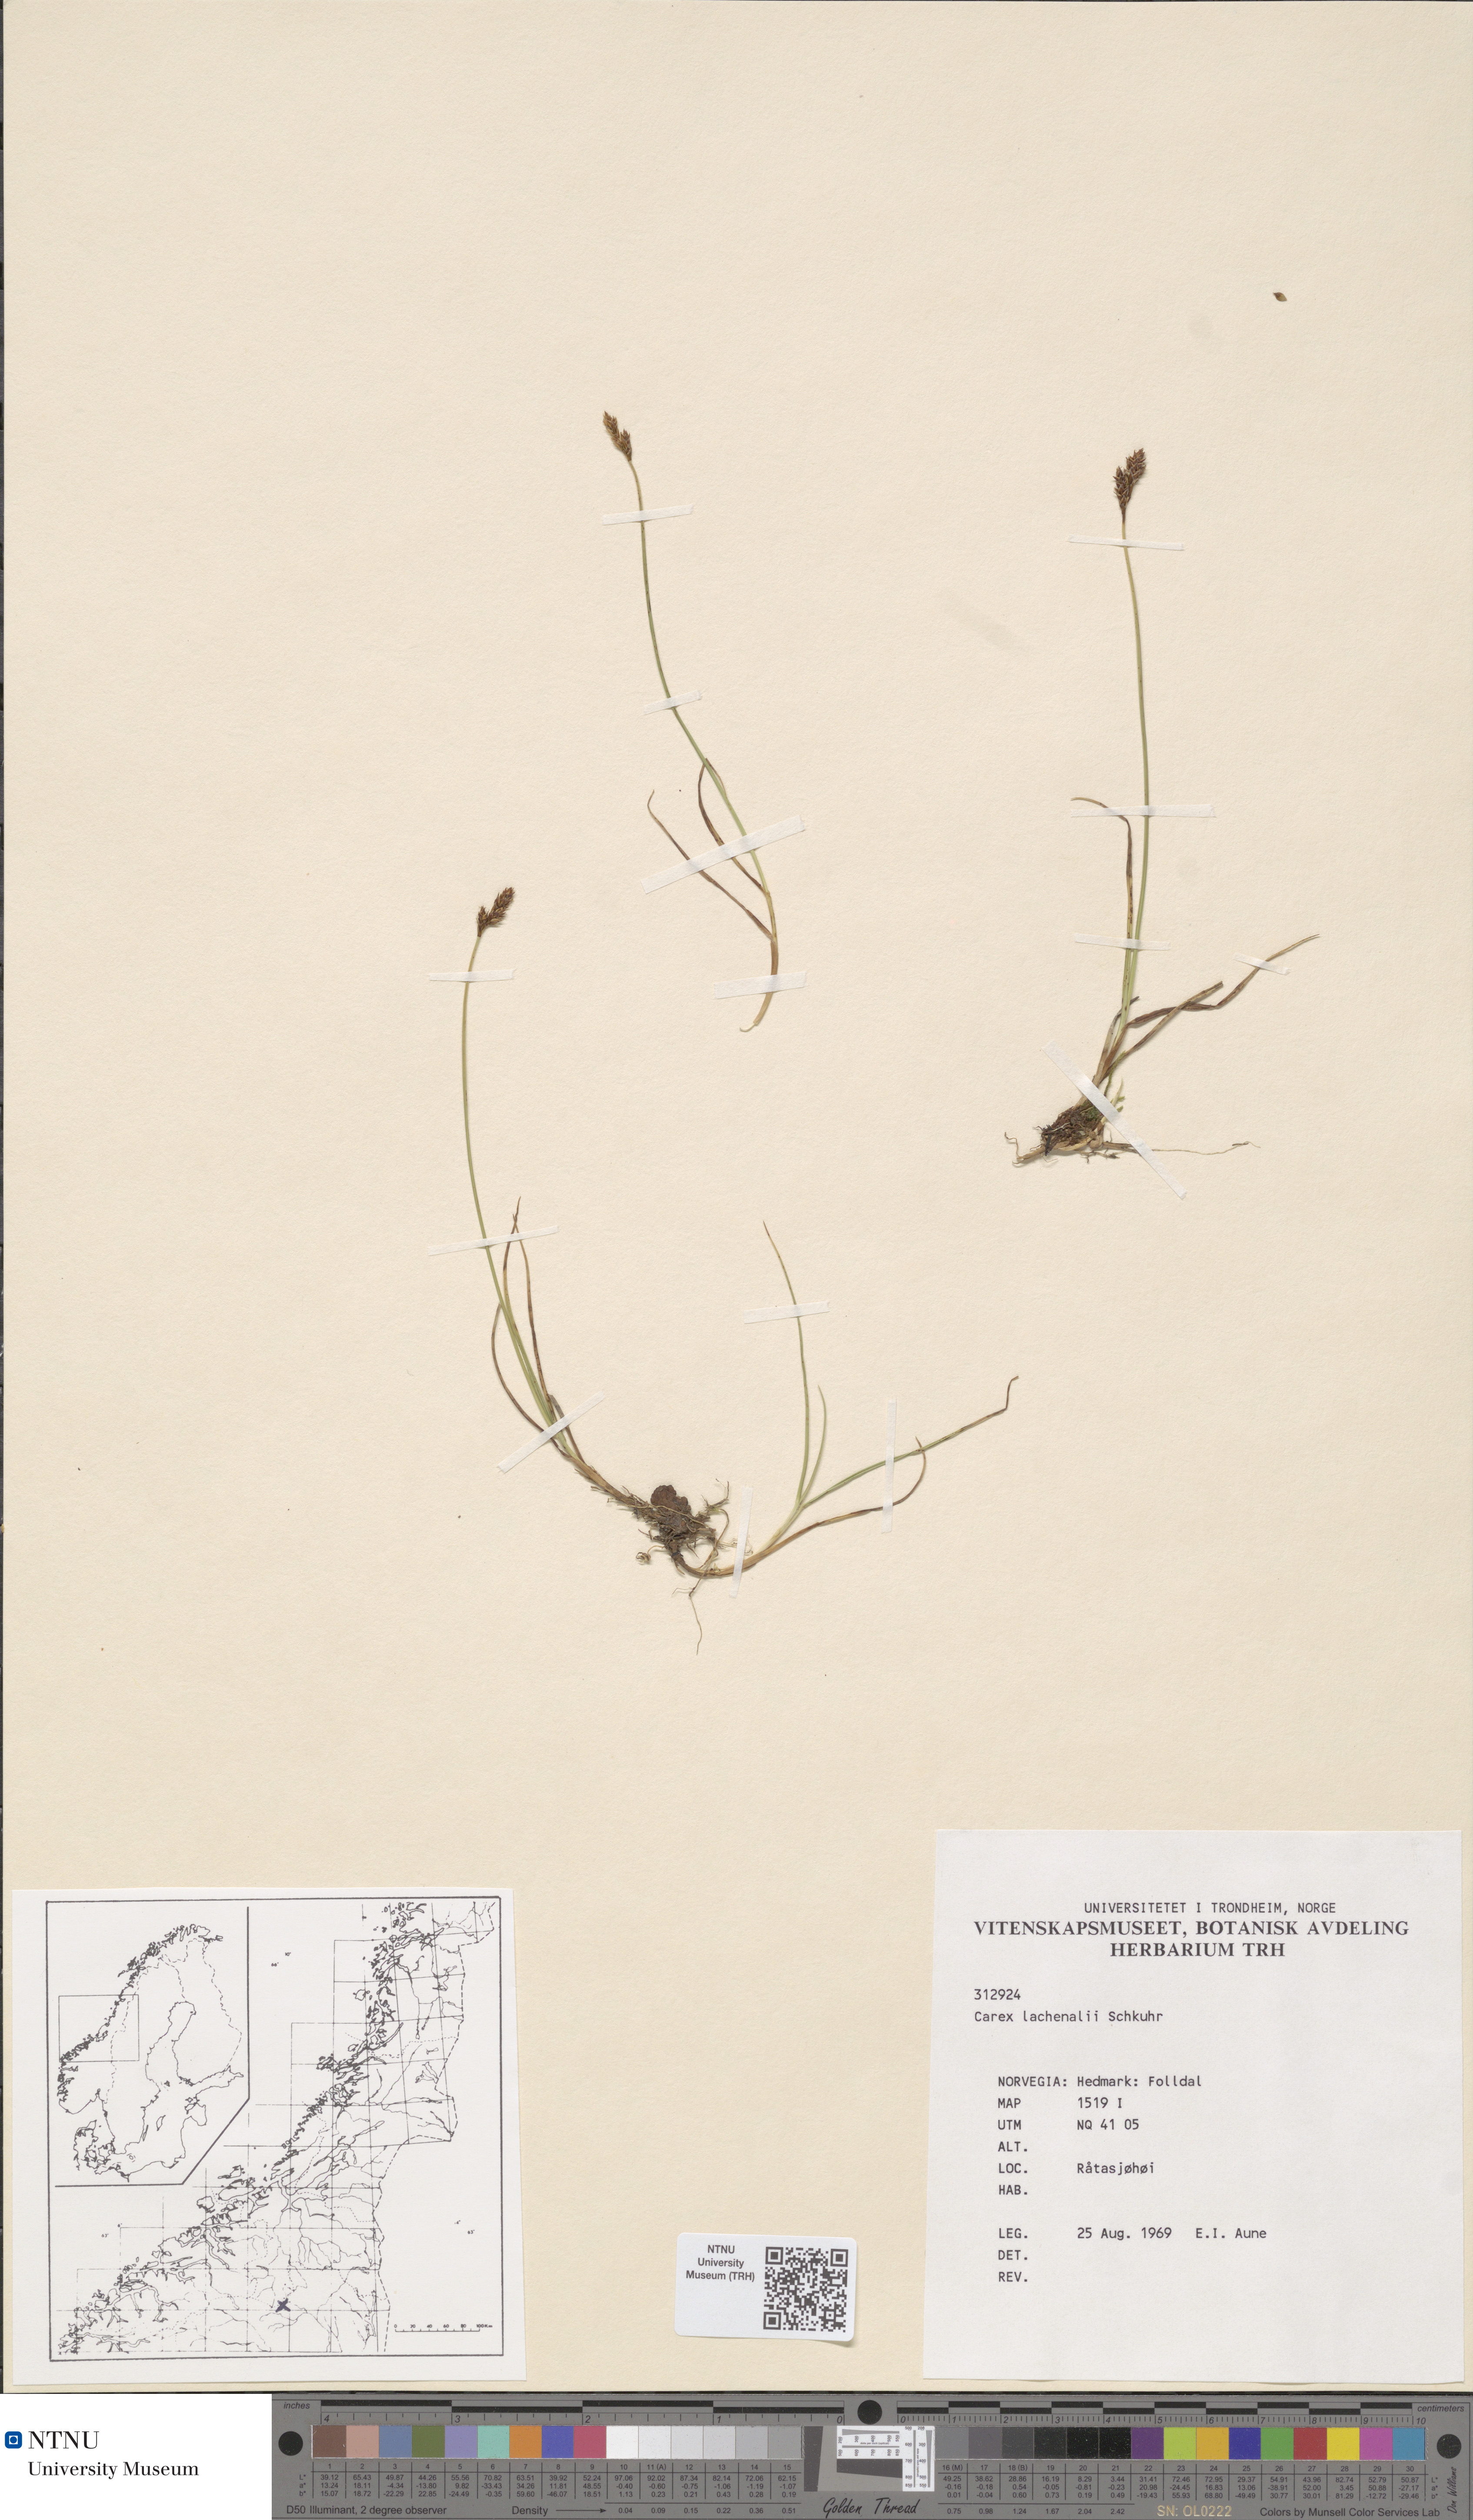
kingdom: Plantae
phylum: Tracheophyta
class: Liliopsida
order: Poales
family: Cyperaceae
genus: Carex
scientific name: Carex lachenalii
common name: Hare's-foot sedge
